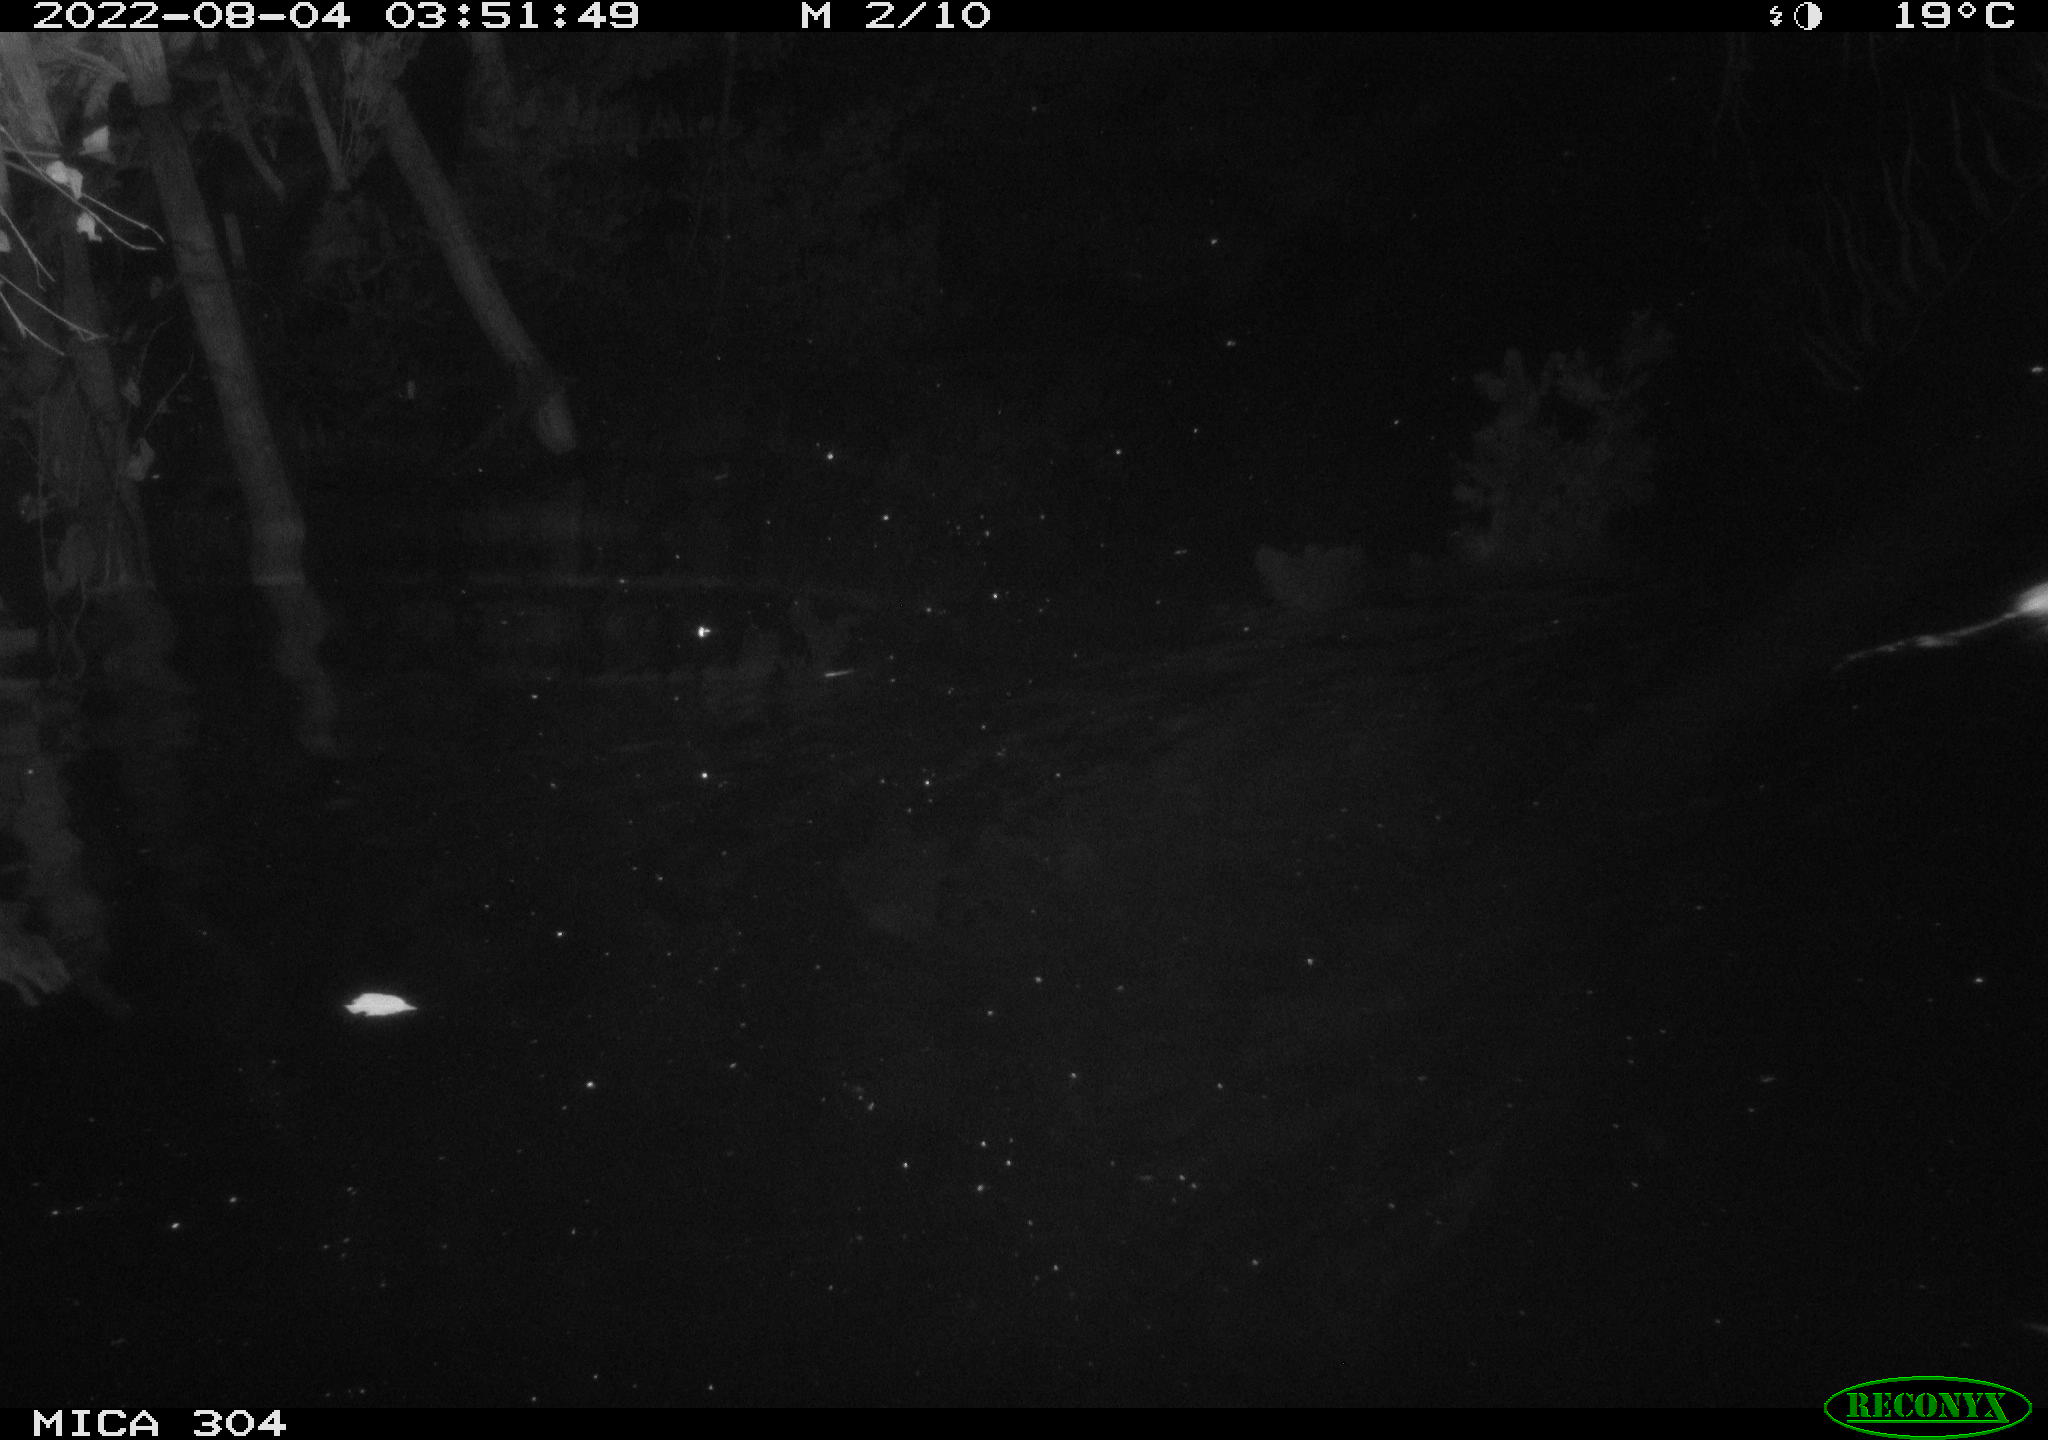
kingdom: Animalia
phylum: Chordata
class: Mammalia
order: Rodentia
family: Muridae
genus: Rattus
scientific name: Rattus norvegicus
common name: Brown rat
